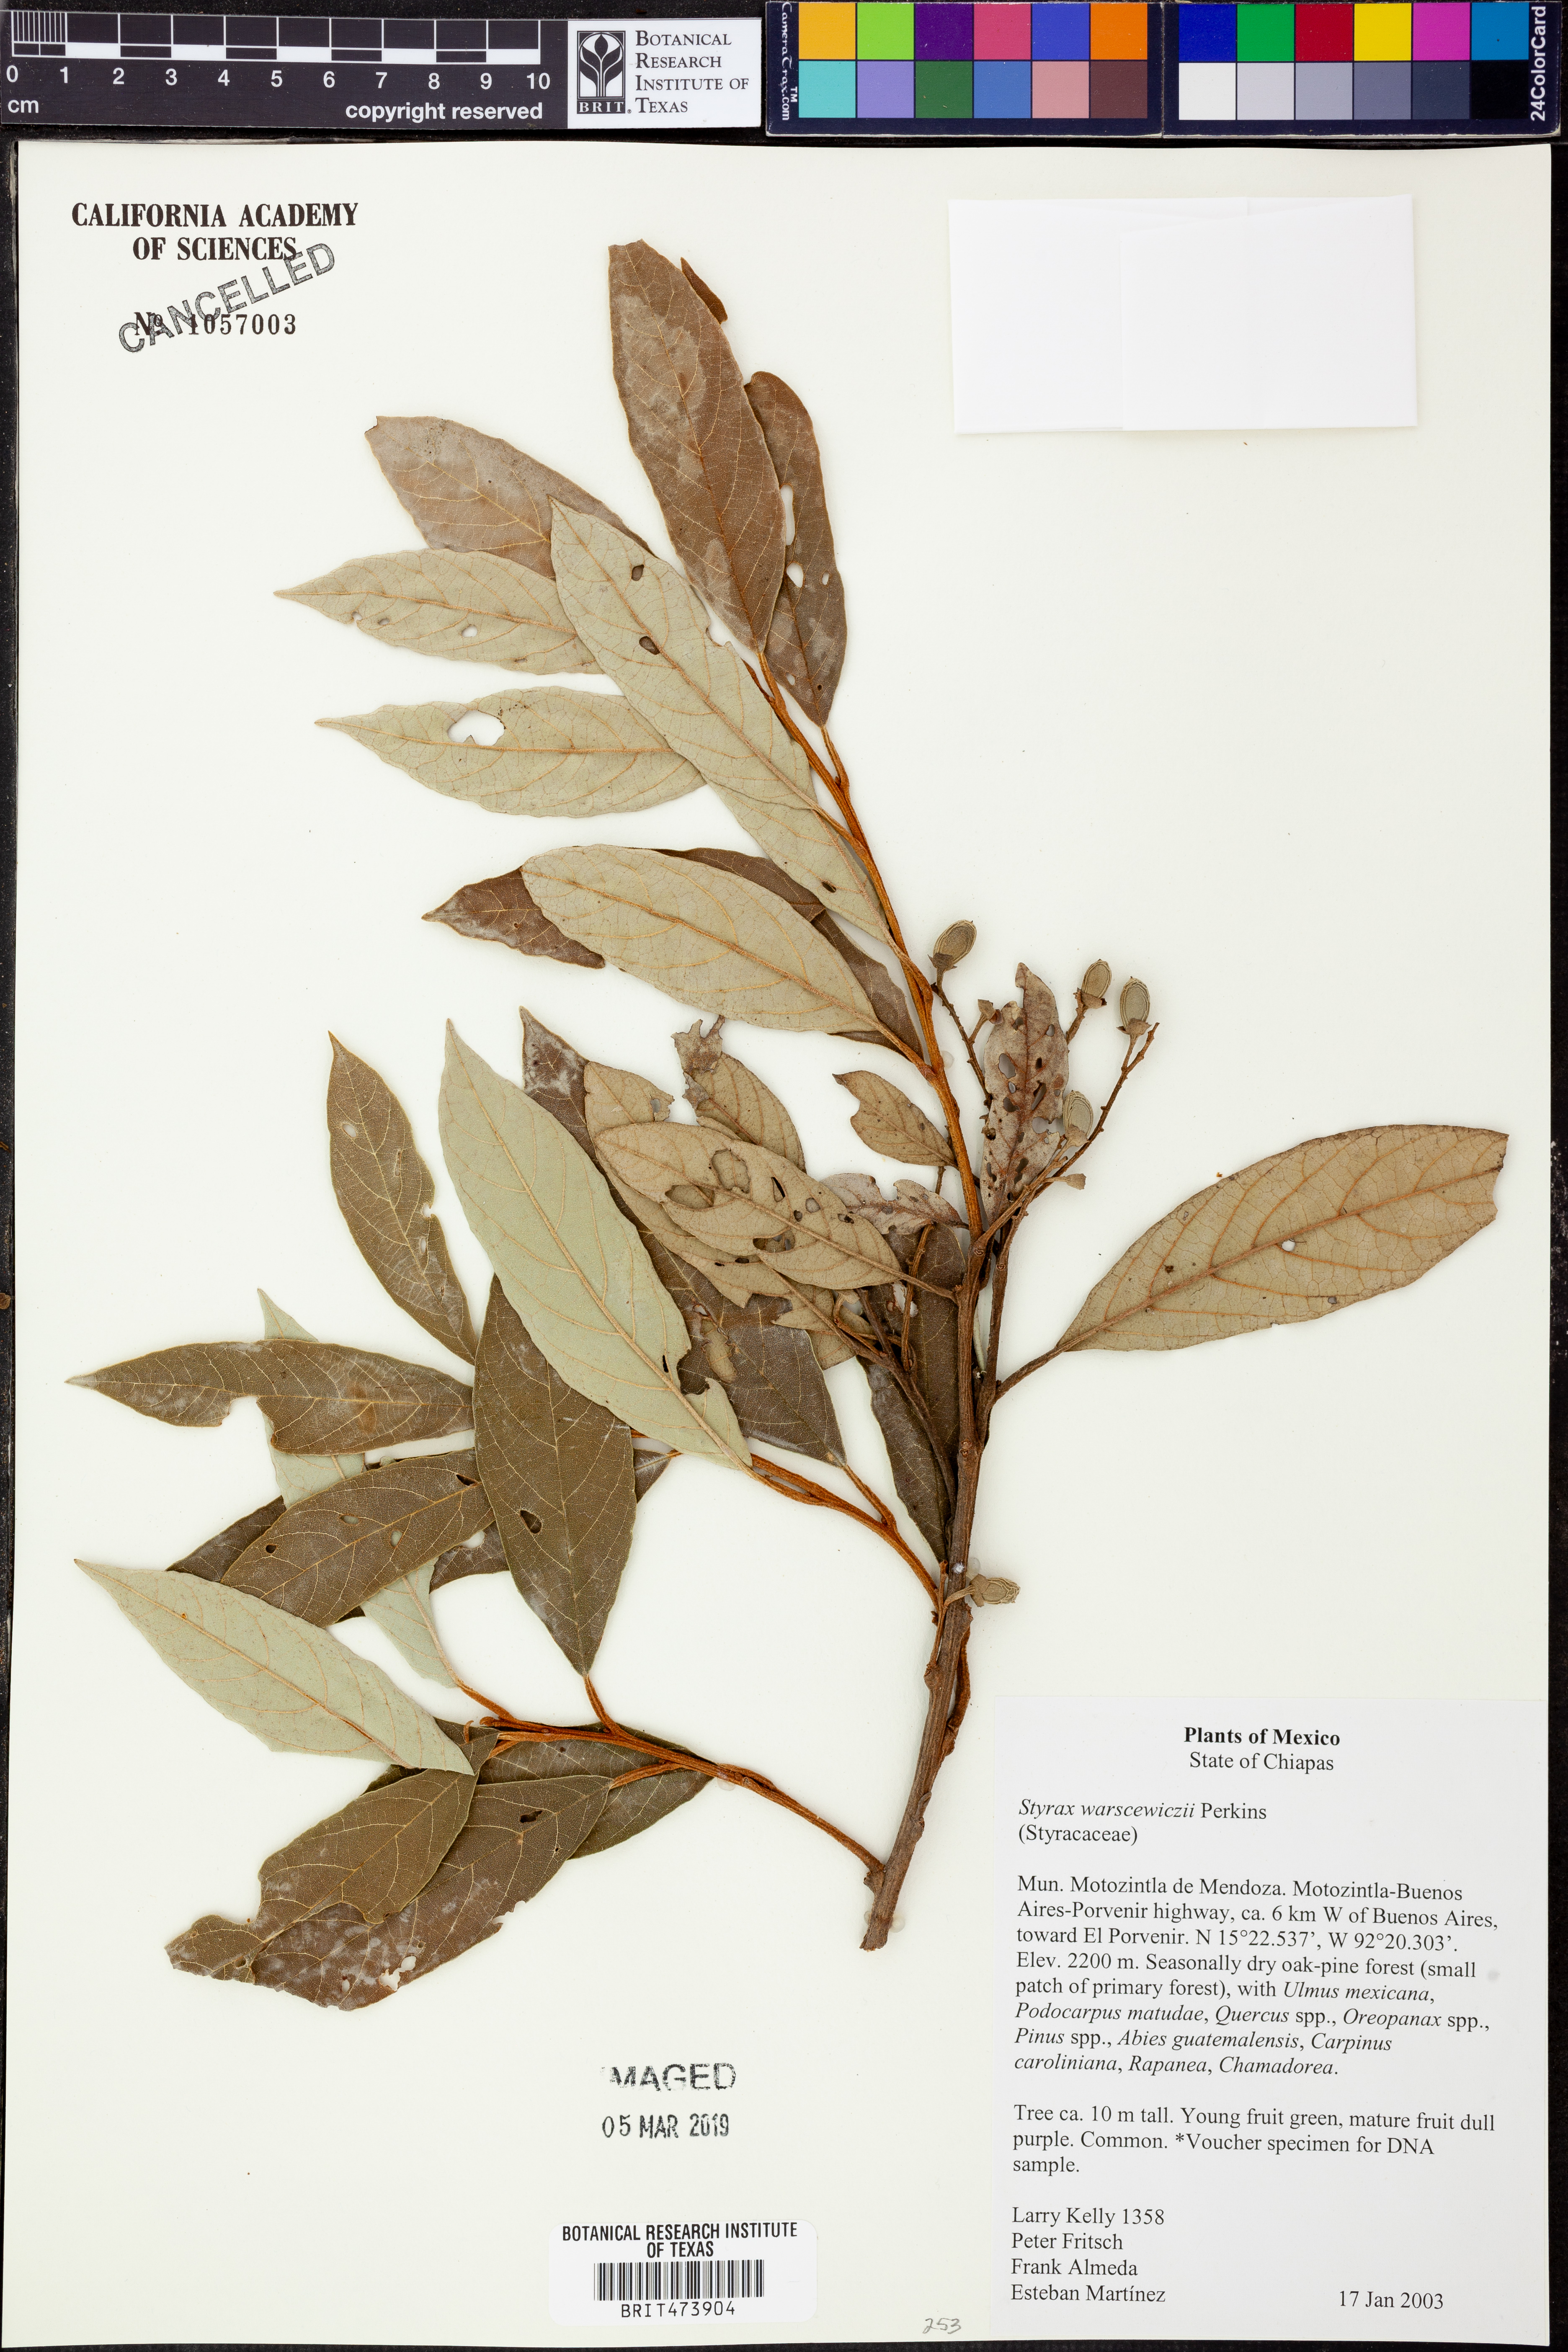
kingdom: Plantae
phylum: Tracheophyta
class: Magnoliopsida
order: Ericales
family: Styracaceae
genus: Styrax
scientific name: Styrax warscewiczii
